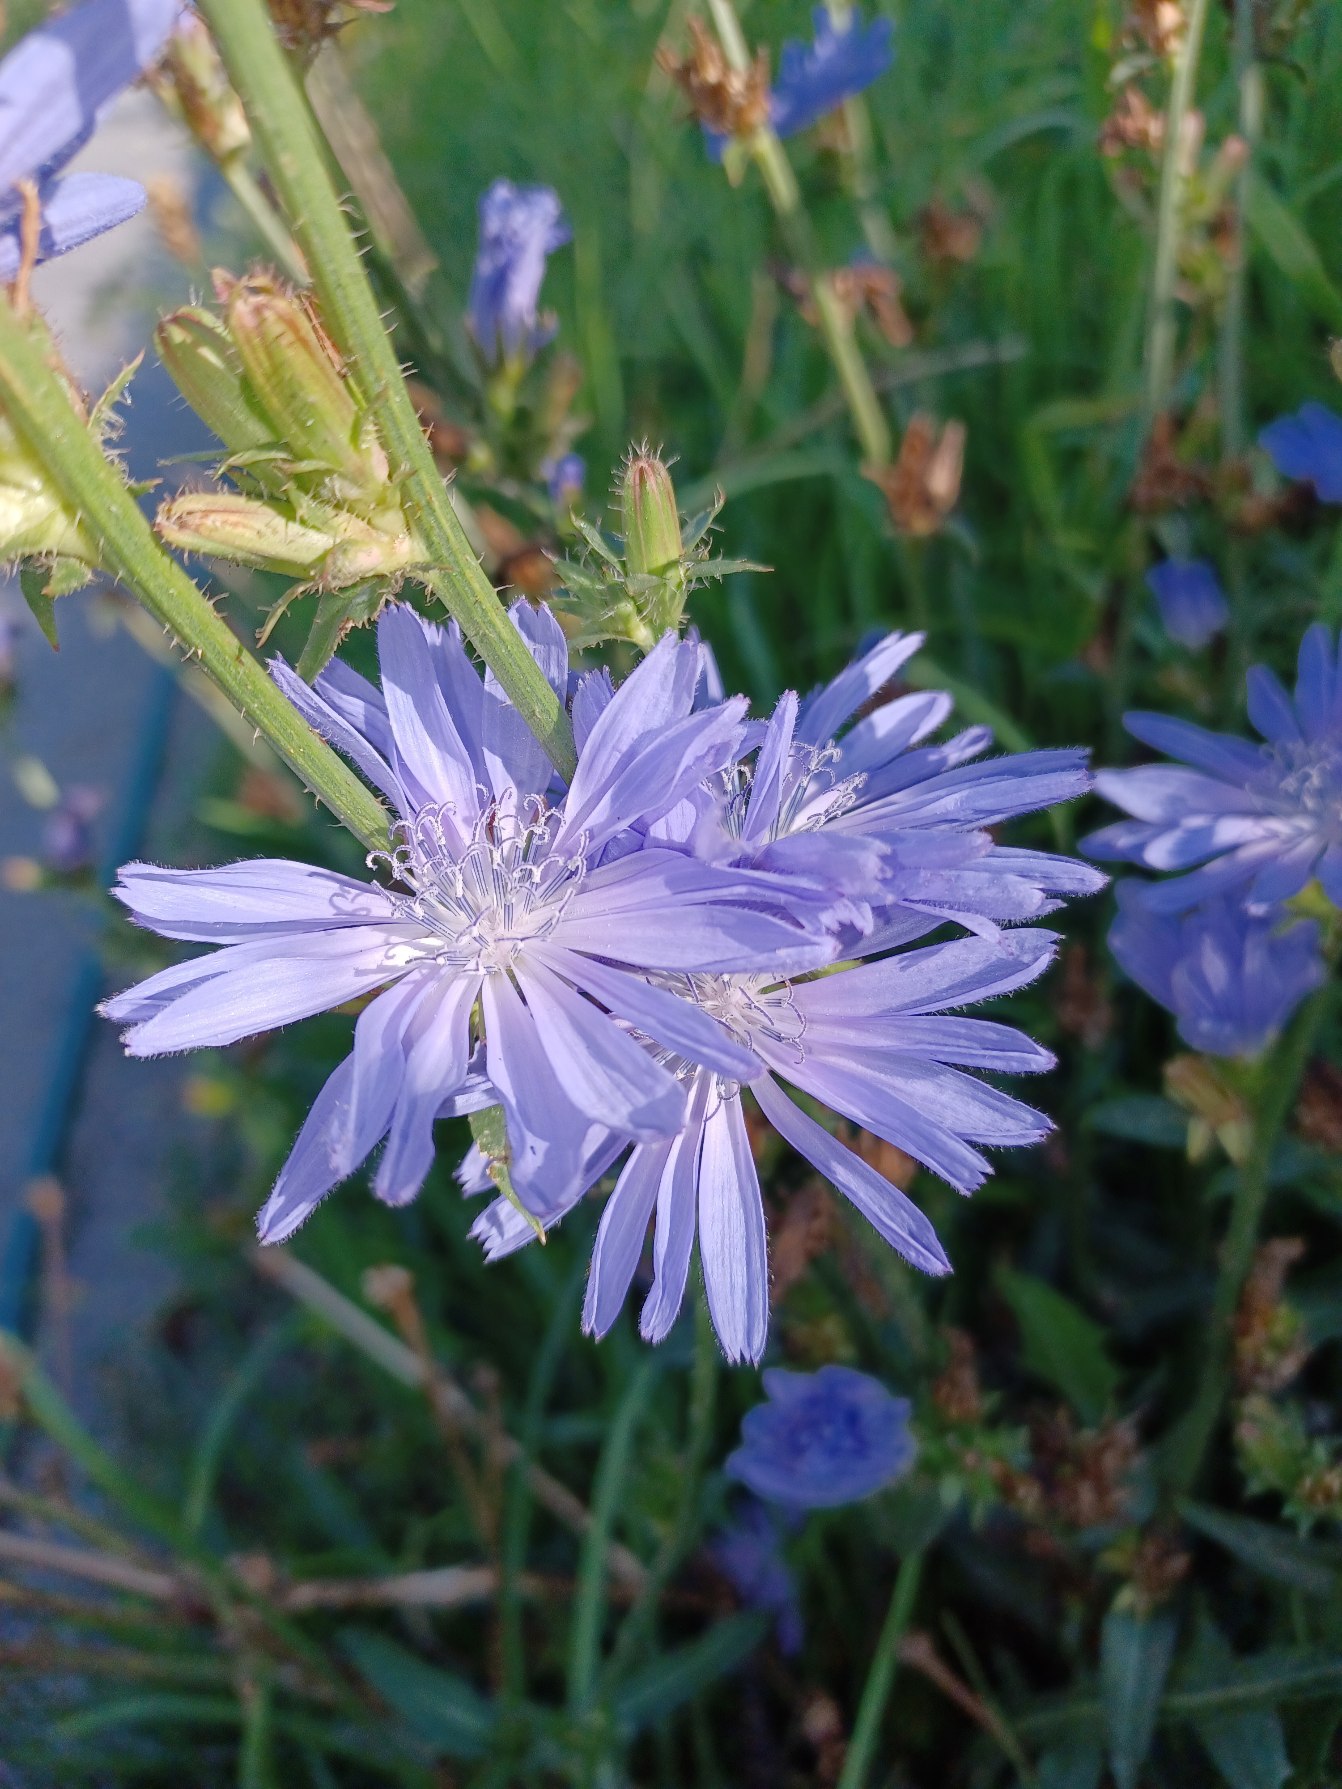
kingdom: Plantae
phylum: Tracheophyta
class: Magnoliopsida
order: Asterales
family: Asteraceae
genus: Cichorium
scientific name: Cichorium intybus
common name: Cikorie
